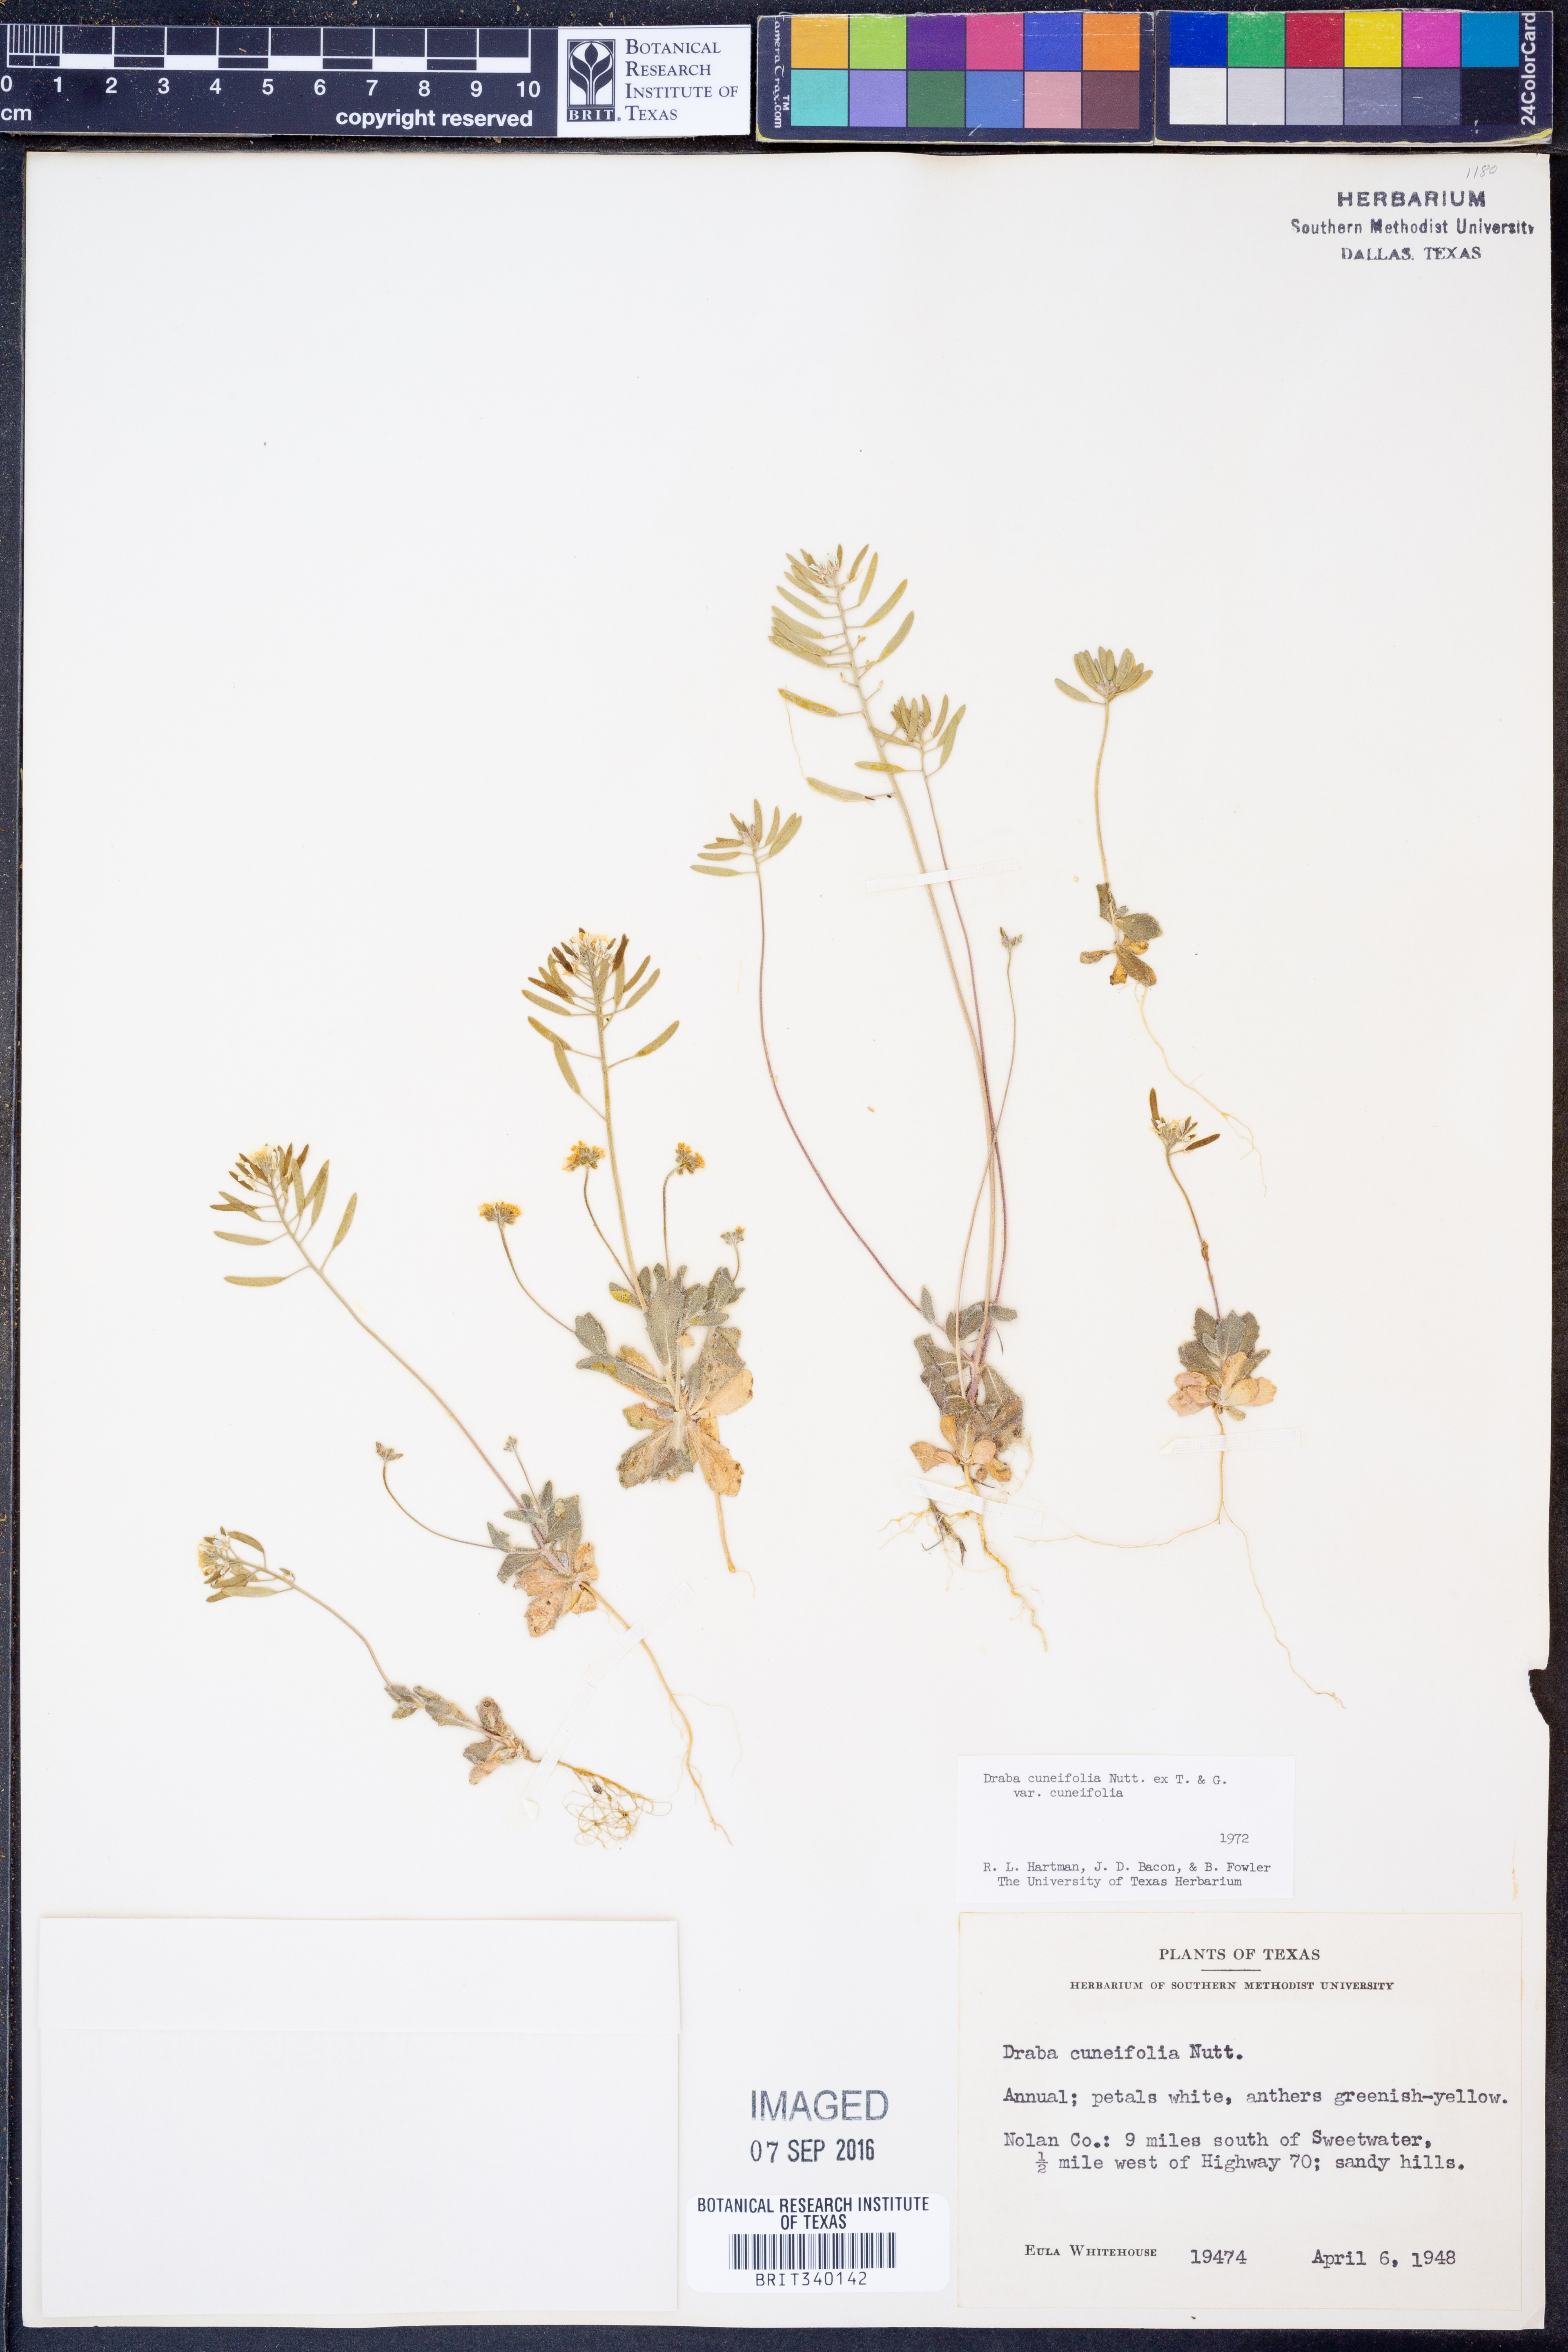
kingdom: Plantae
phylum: Tracheophyta
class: Magnoliopsida
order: Brassicales
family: Brassicaceae
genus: Tomostima
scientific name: Tomostima cuneifolia
